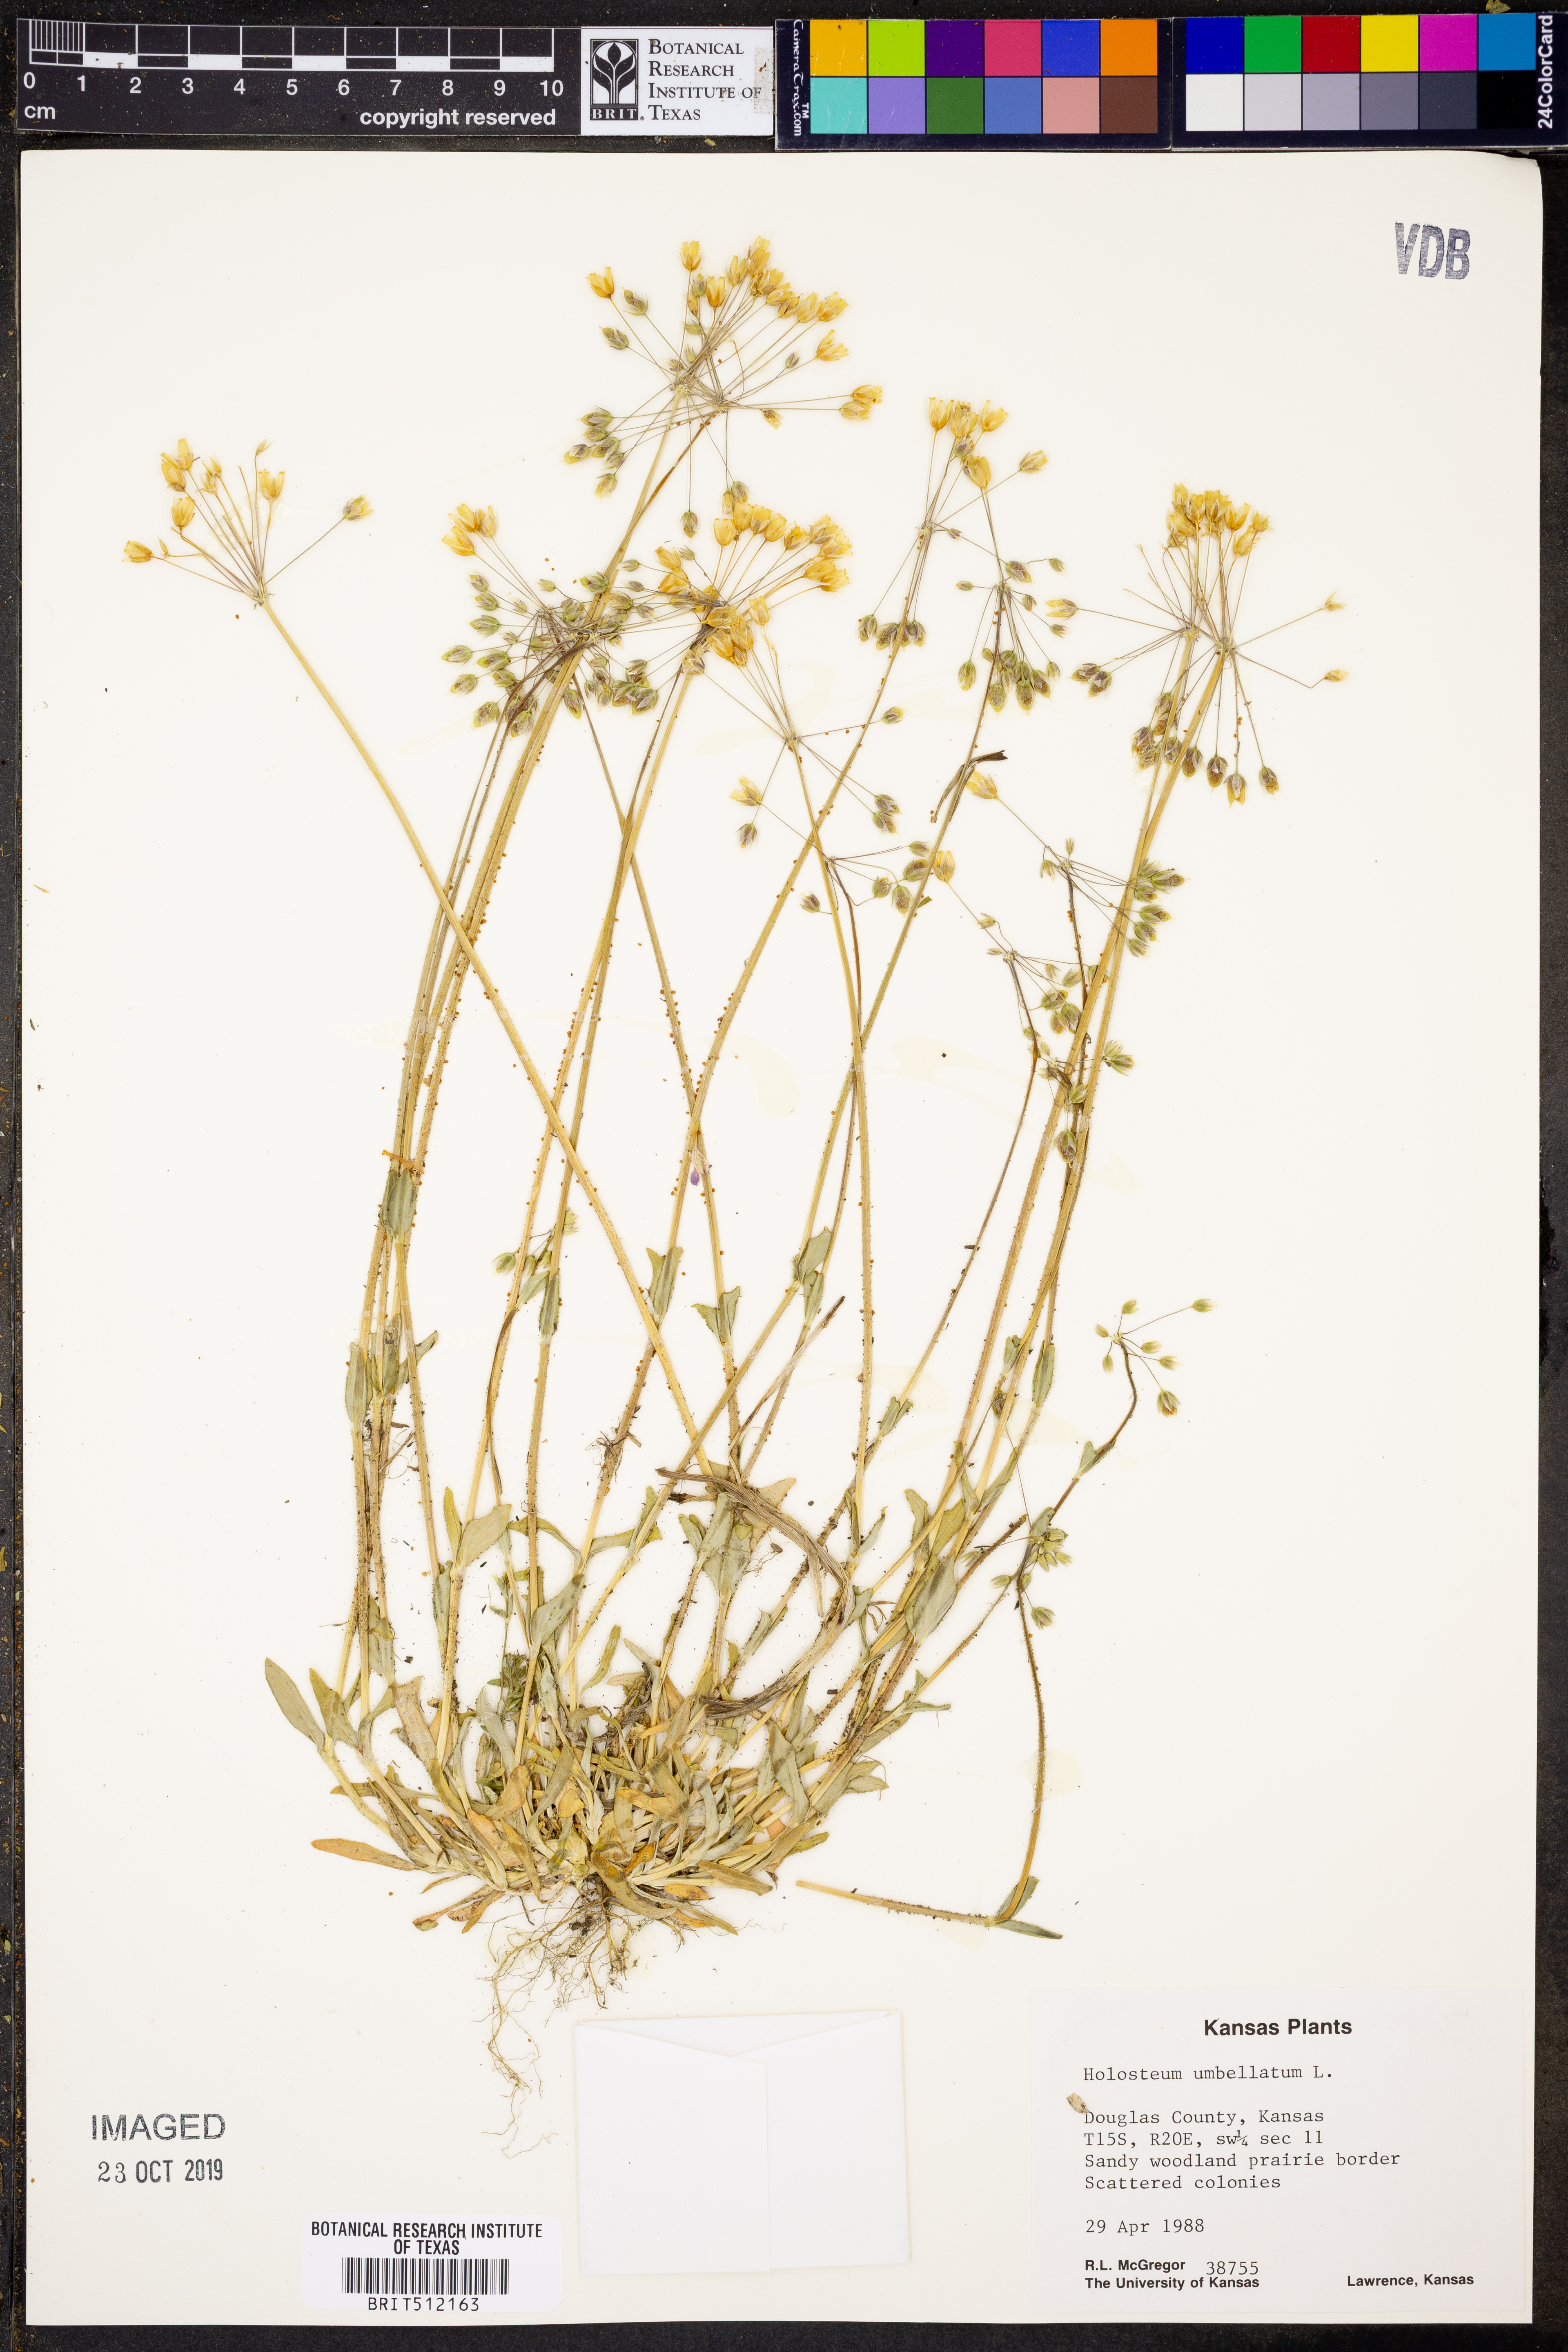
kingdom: Plantae
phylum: Tracheophyta
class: Magnoliopsida
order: Caryophyllales
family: Caryophyllaceae
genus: Holosteum
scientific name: Holosteum umbellatum
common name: Jagged chickweed
